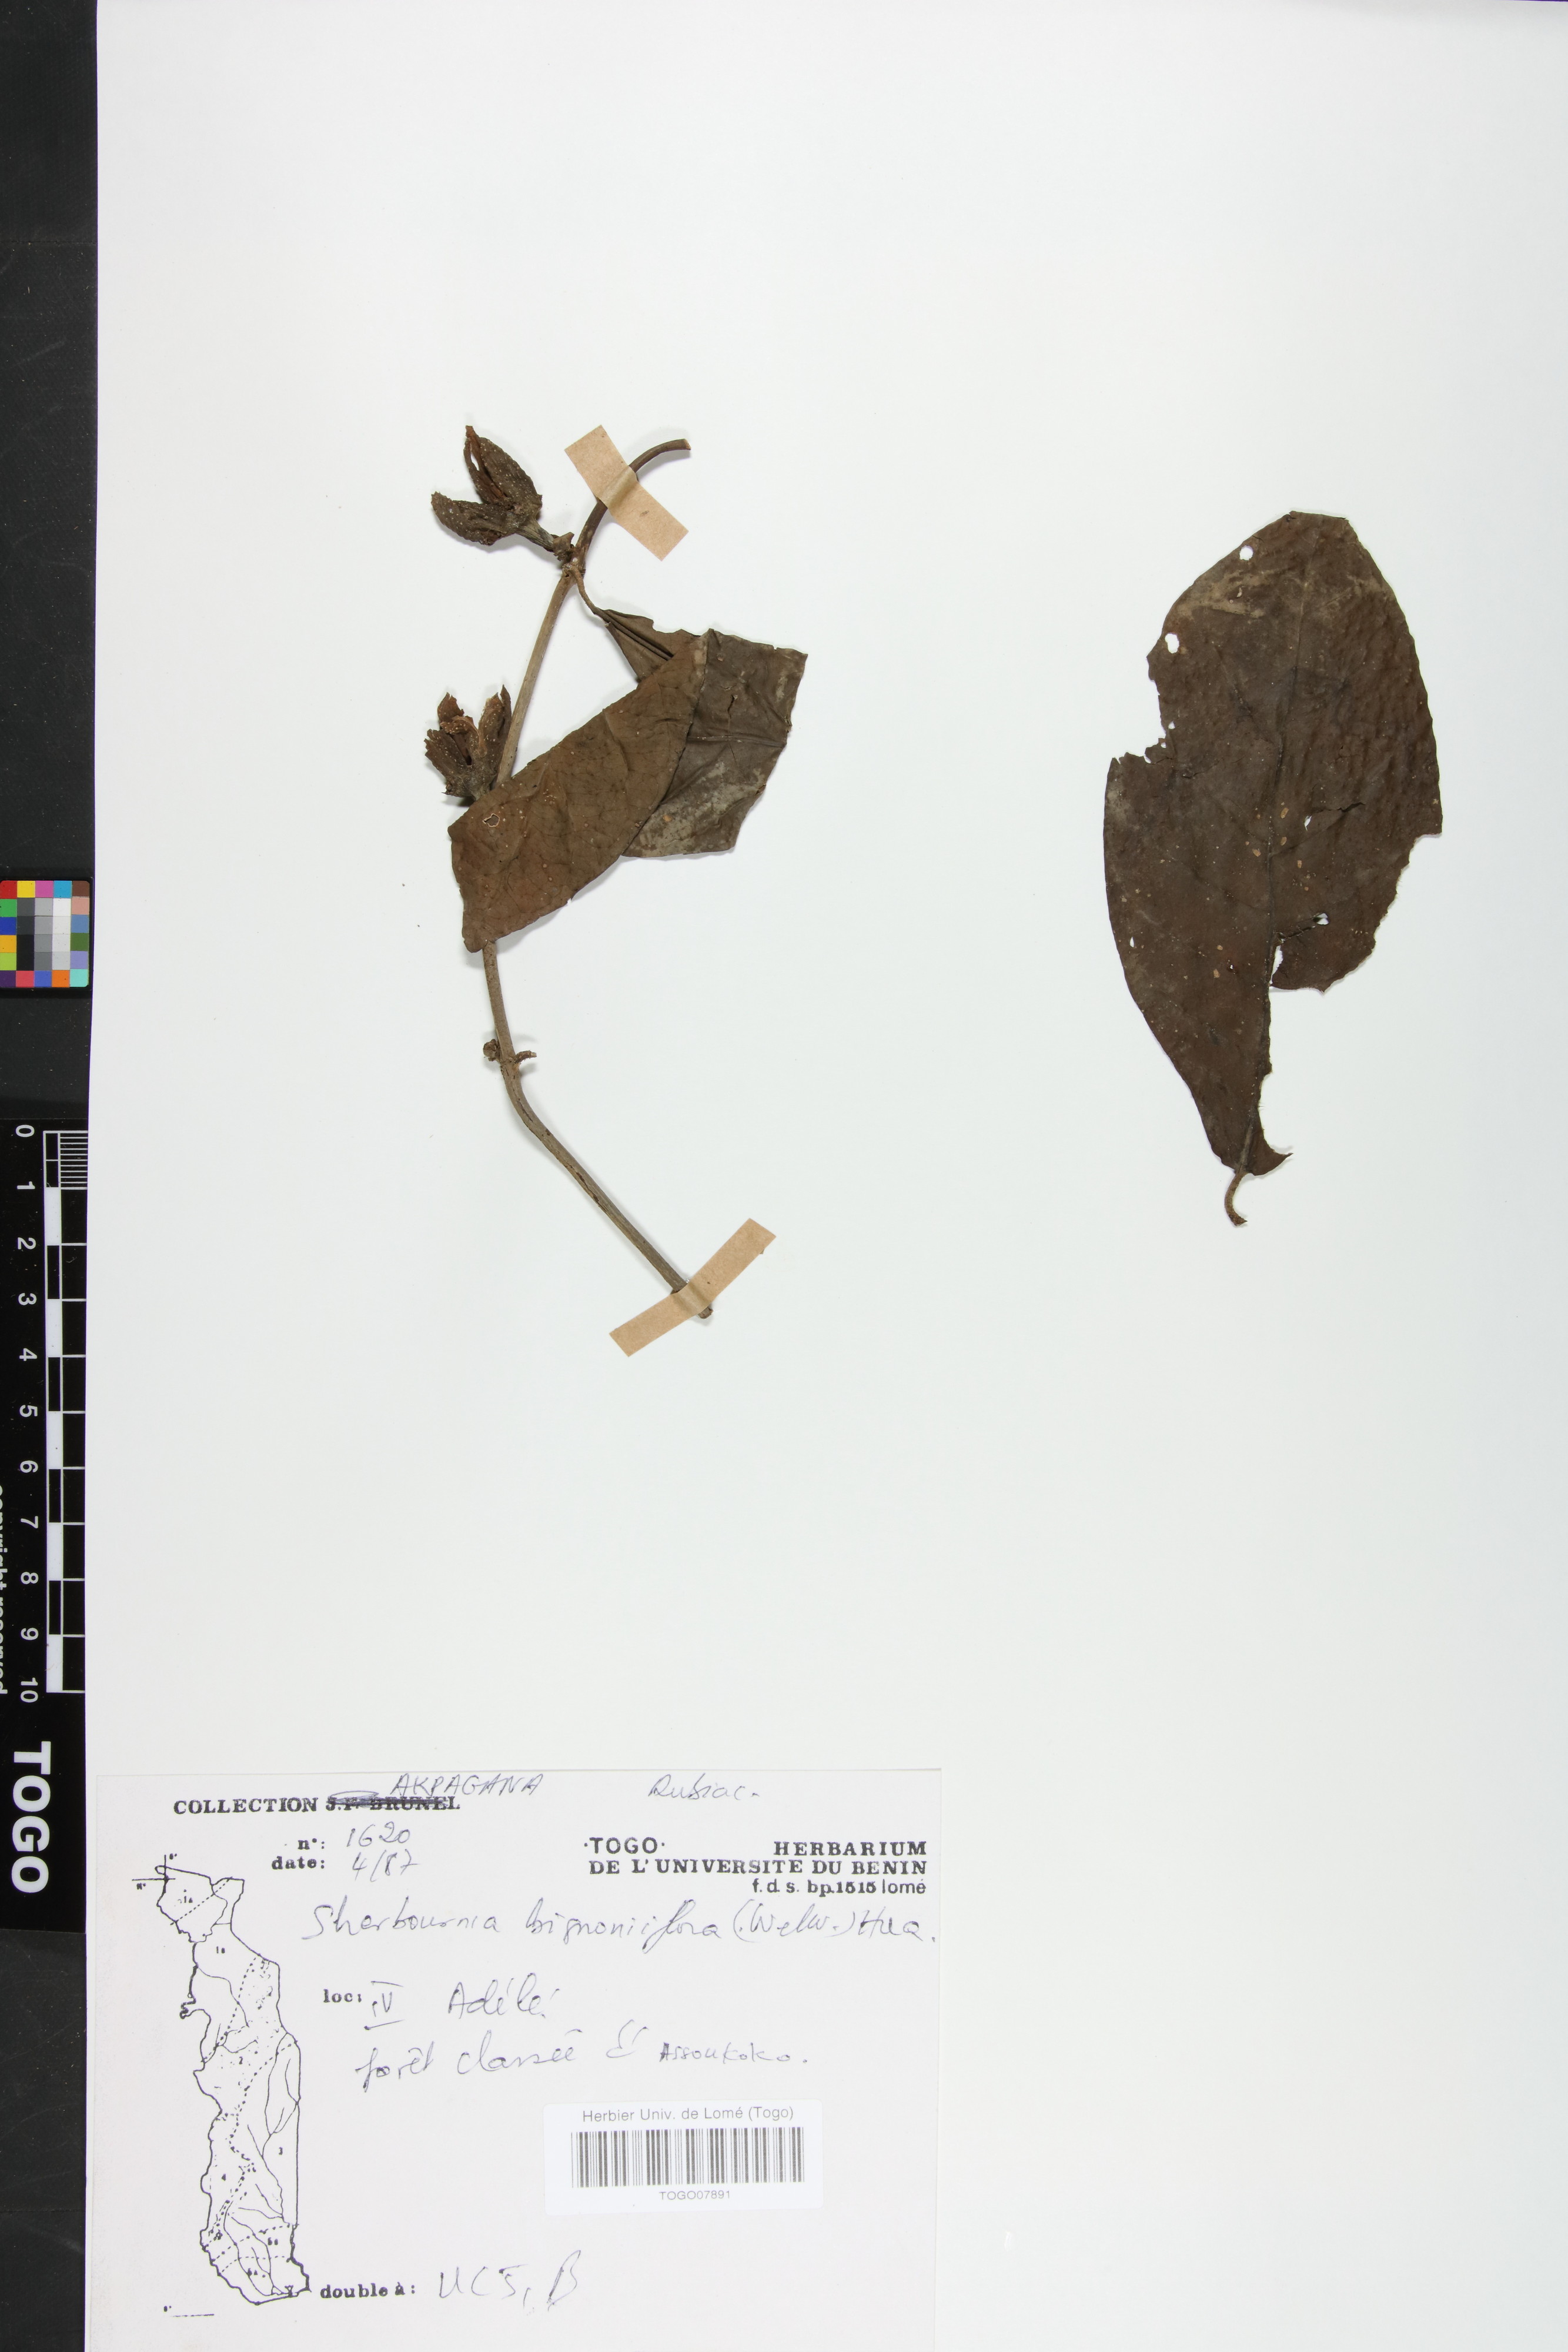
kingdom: Plantae
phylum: Tracheophyta
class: Magnoliopsida
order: Gentianales
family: Rubiaceae
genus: Sherbournia
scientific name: Sherbournia bignoniiflora
